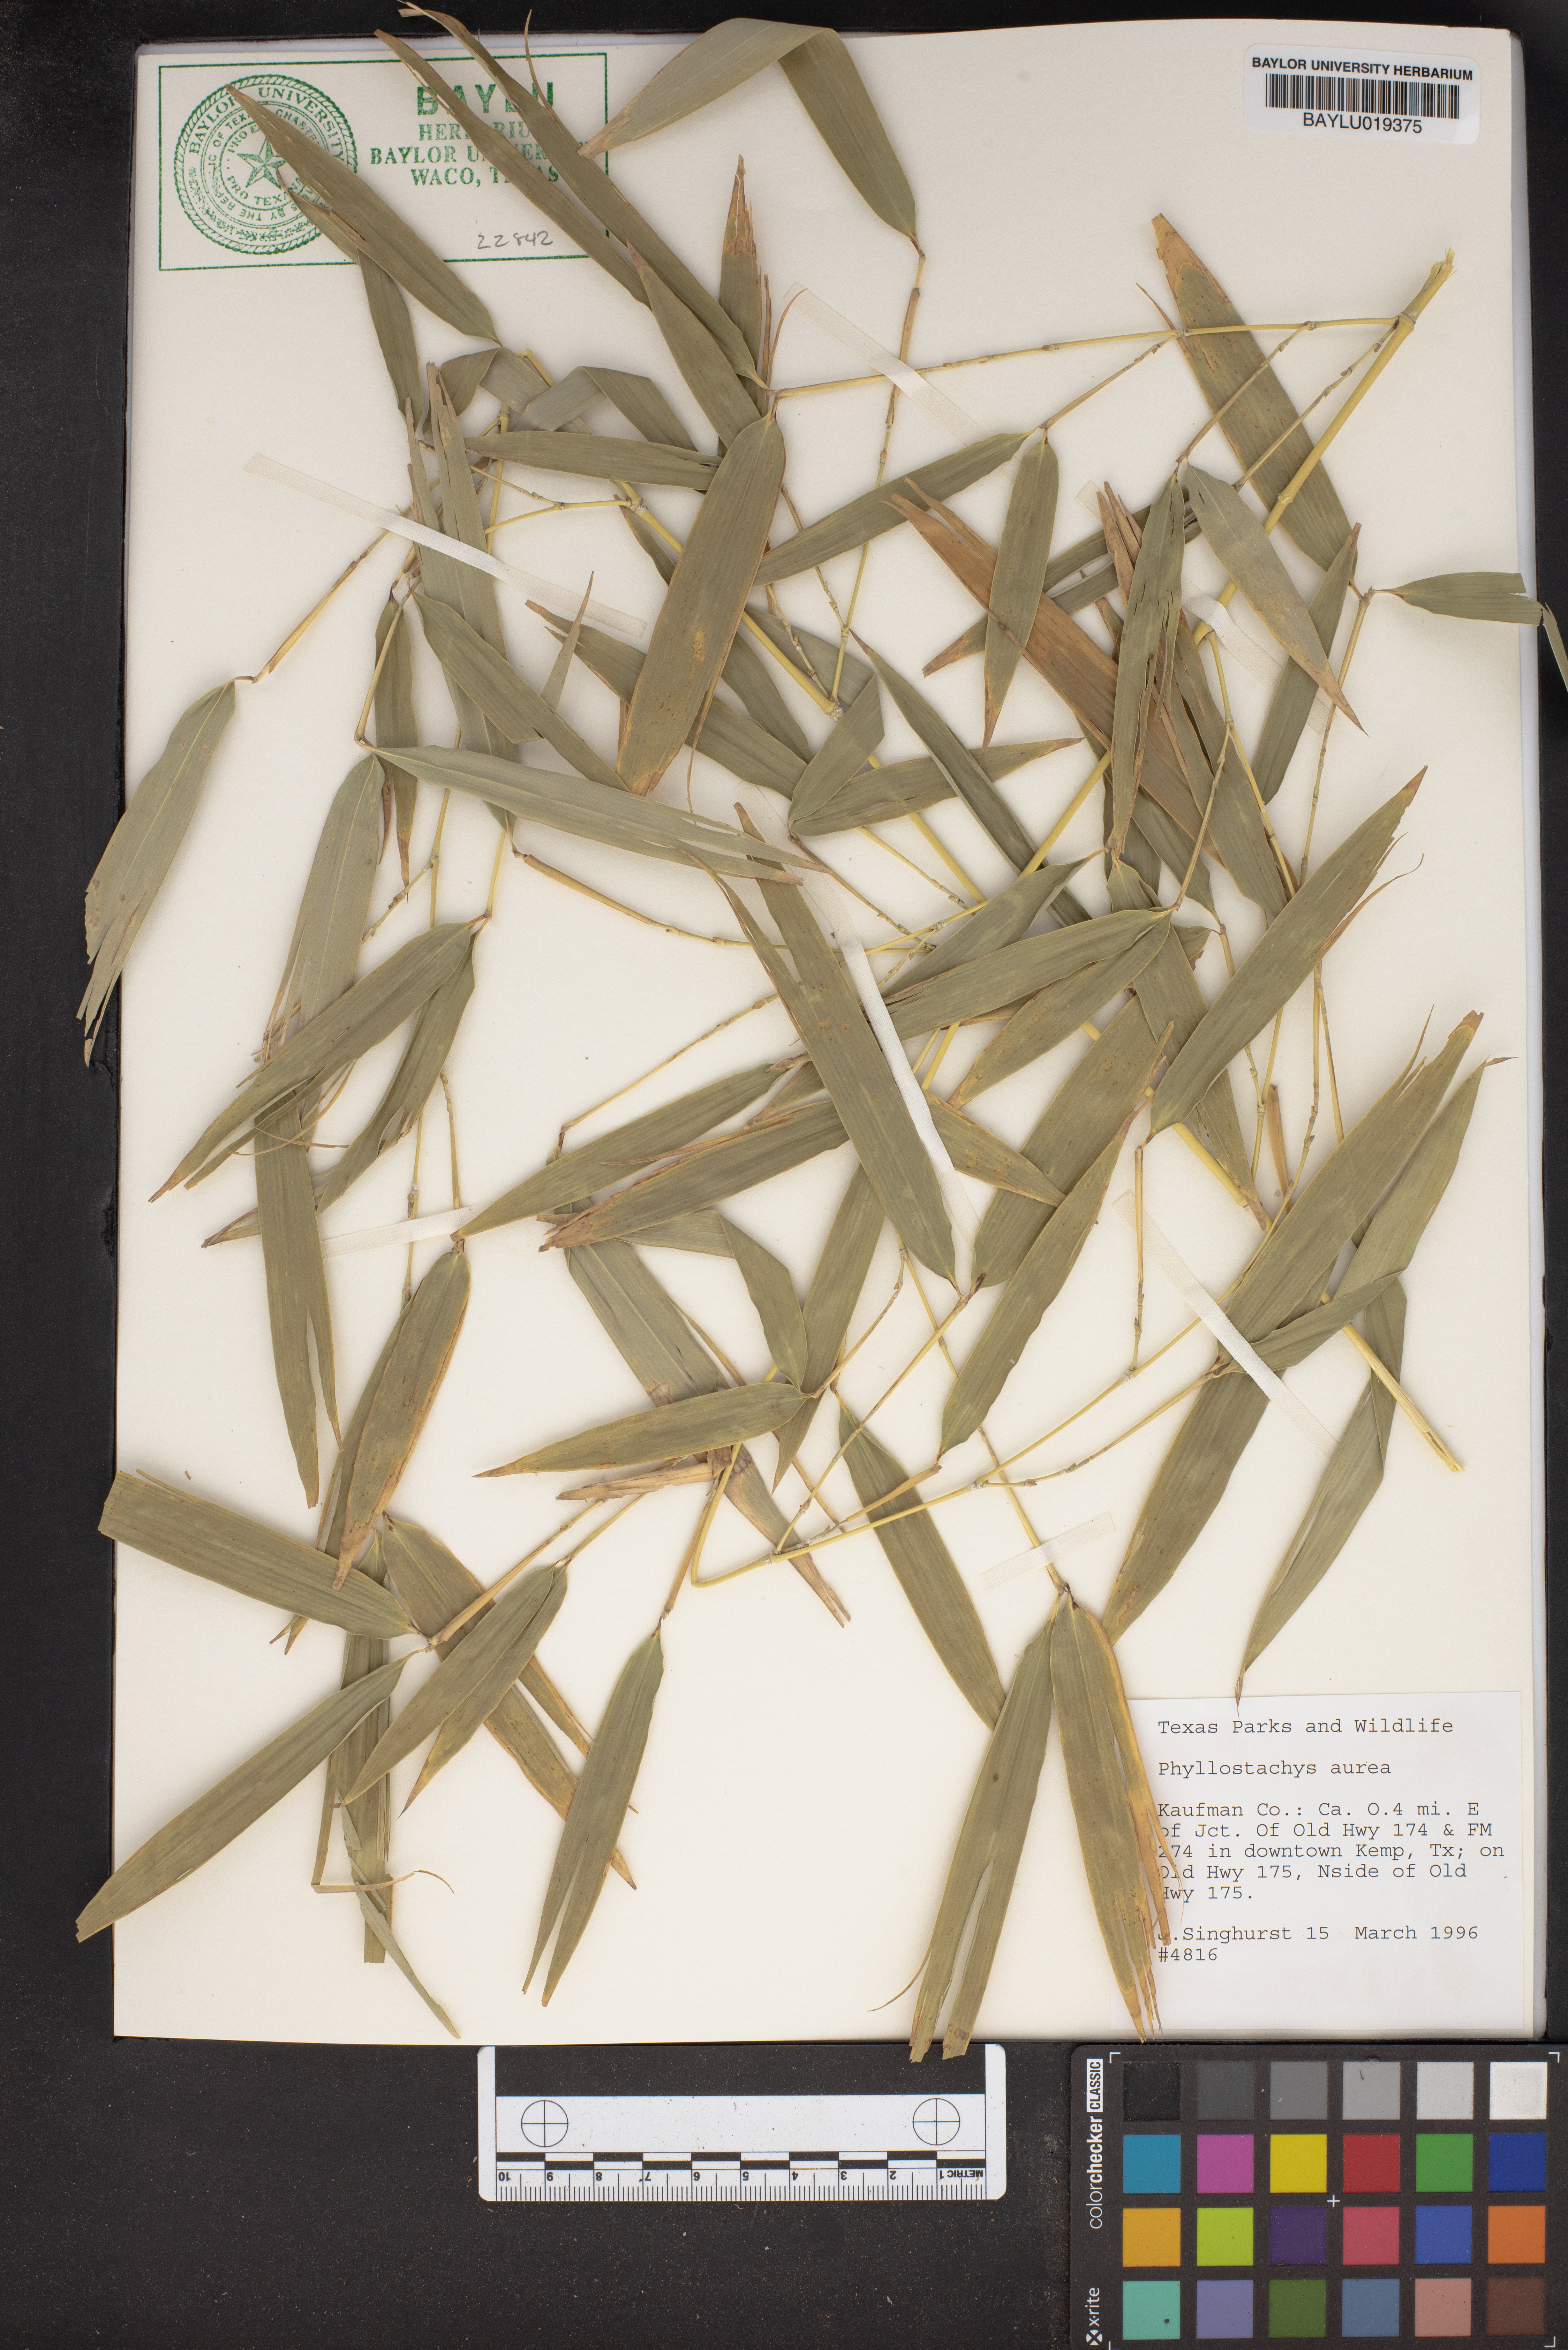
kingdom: Plantae
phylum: Tracheophyta
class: Liliopsida
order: Poales
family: Poaceae
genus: Phyllostachys
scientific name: Phyllostachys aurea
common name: Golden bamboo
